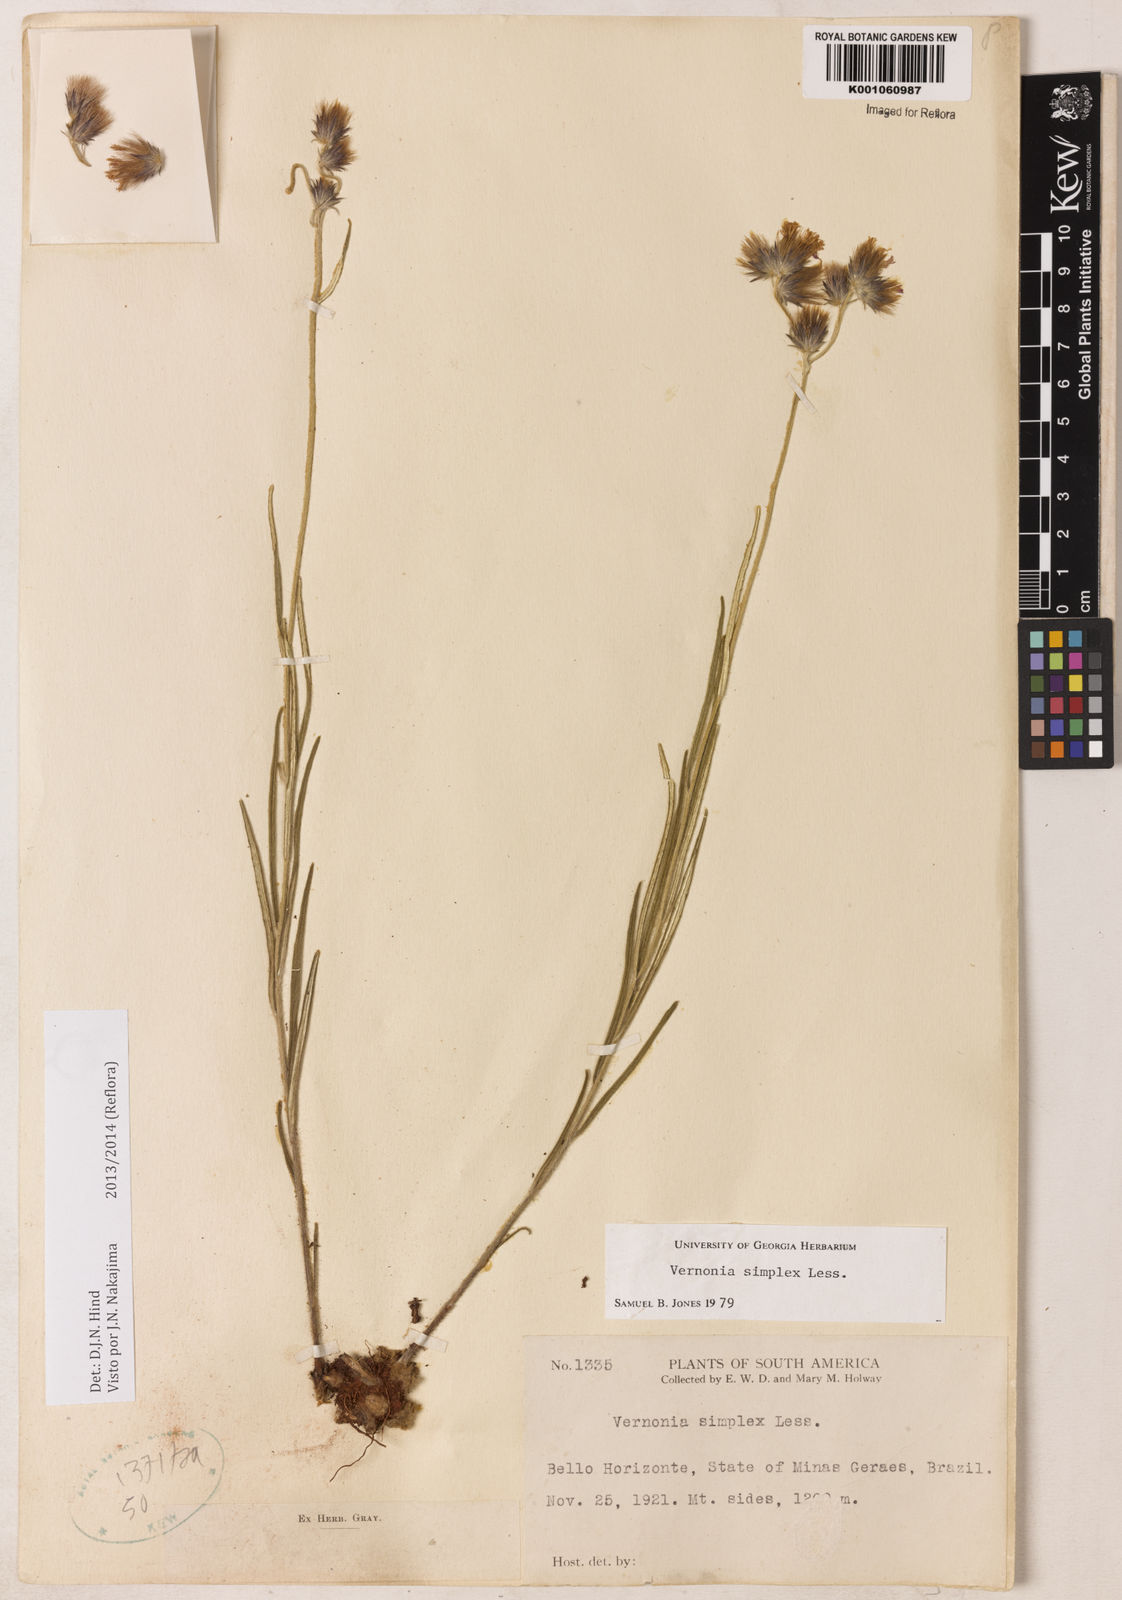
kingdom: Plantae
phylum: Tracheophyta
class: Magnoliopsida
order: Asterales
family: Asteraceae
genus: Chrysolaena
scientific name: Chrysolaena simplex
